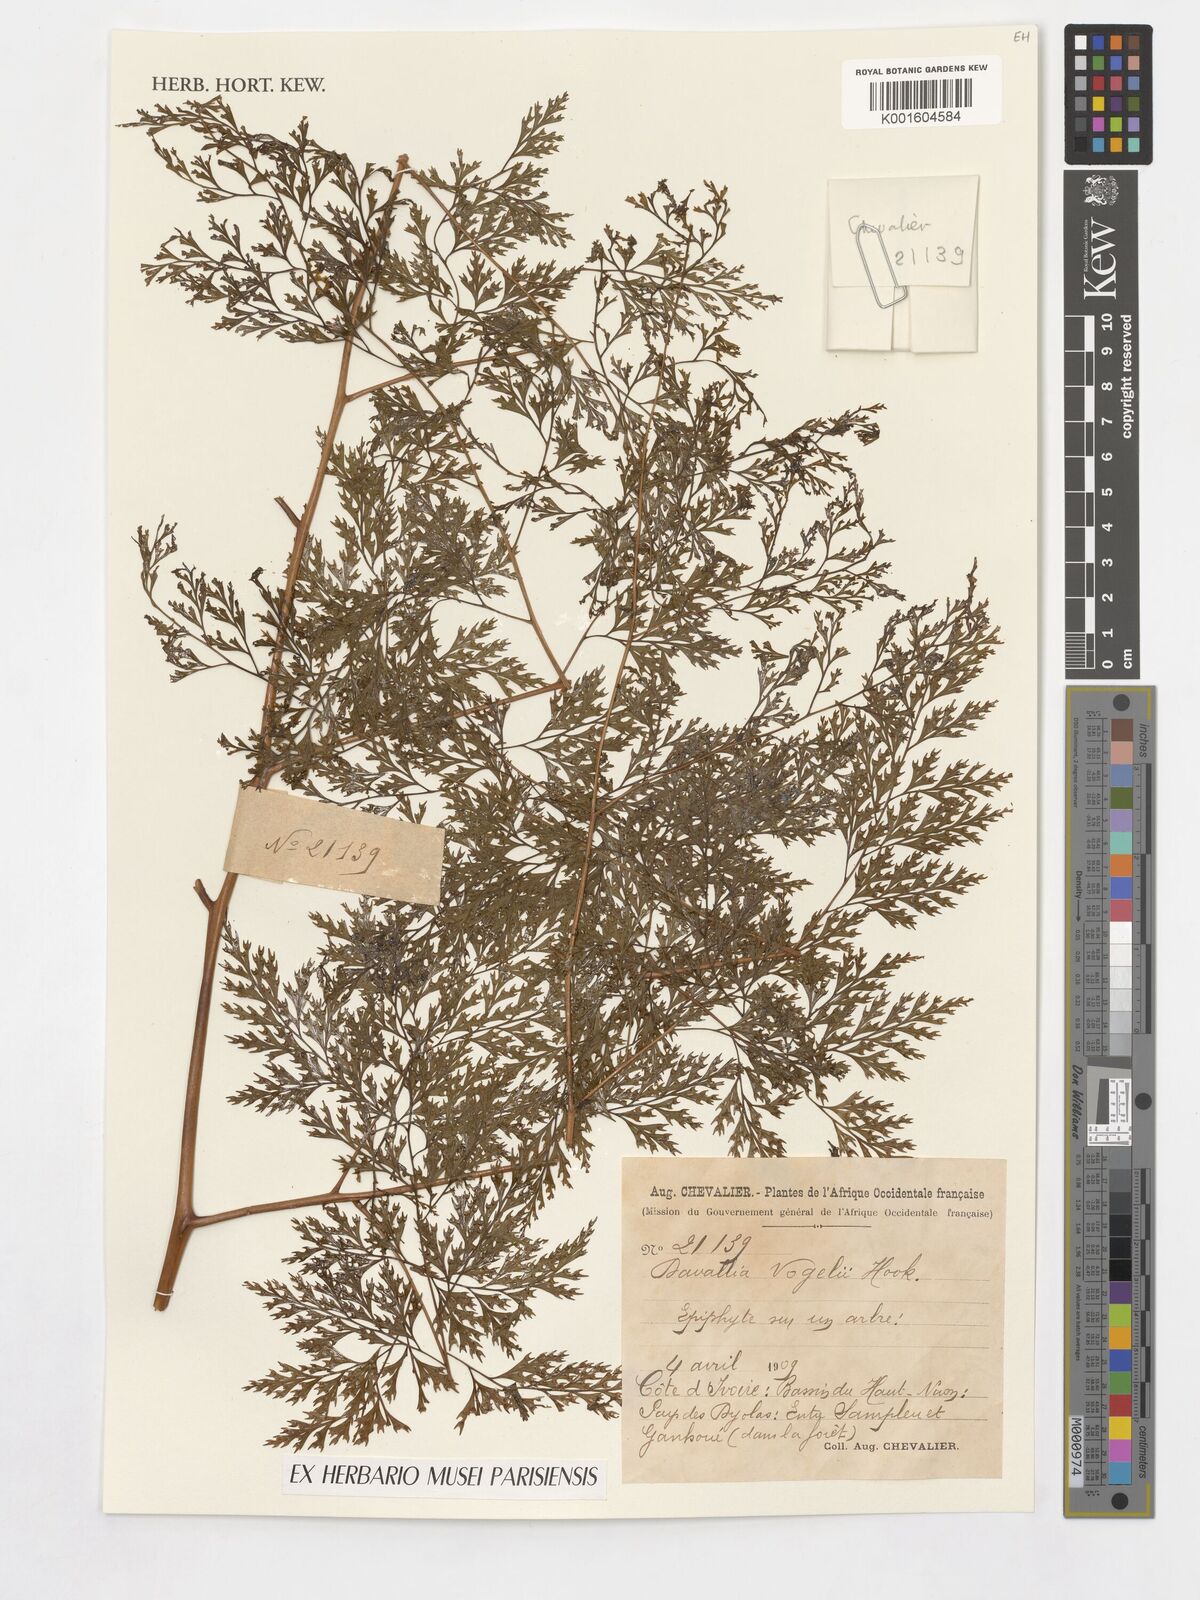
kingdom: Plantae
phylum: Tracheophyta
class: Polypodiopsida
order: Polypodiales
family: Davalliaceae
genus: Davallia
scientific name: Davallia chaerophylloides
